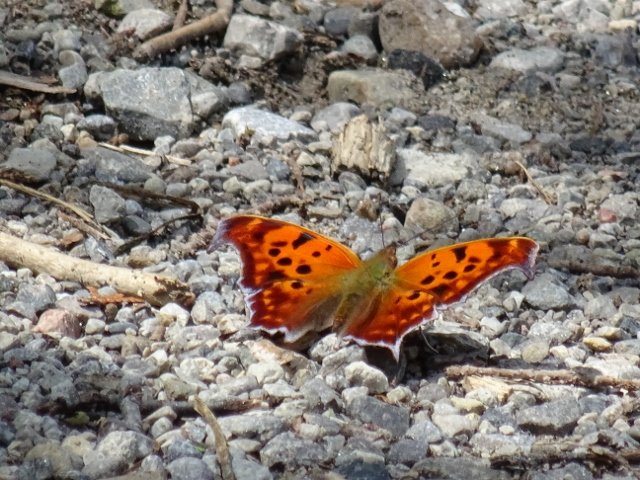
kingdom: Animalia
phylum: Arthropoda
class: Insecta
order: Lepidoptera
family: Nymphalidae
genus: Polygonia
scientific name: Polygonia interrogationis
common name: Question Mark
